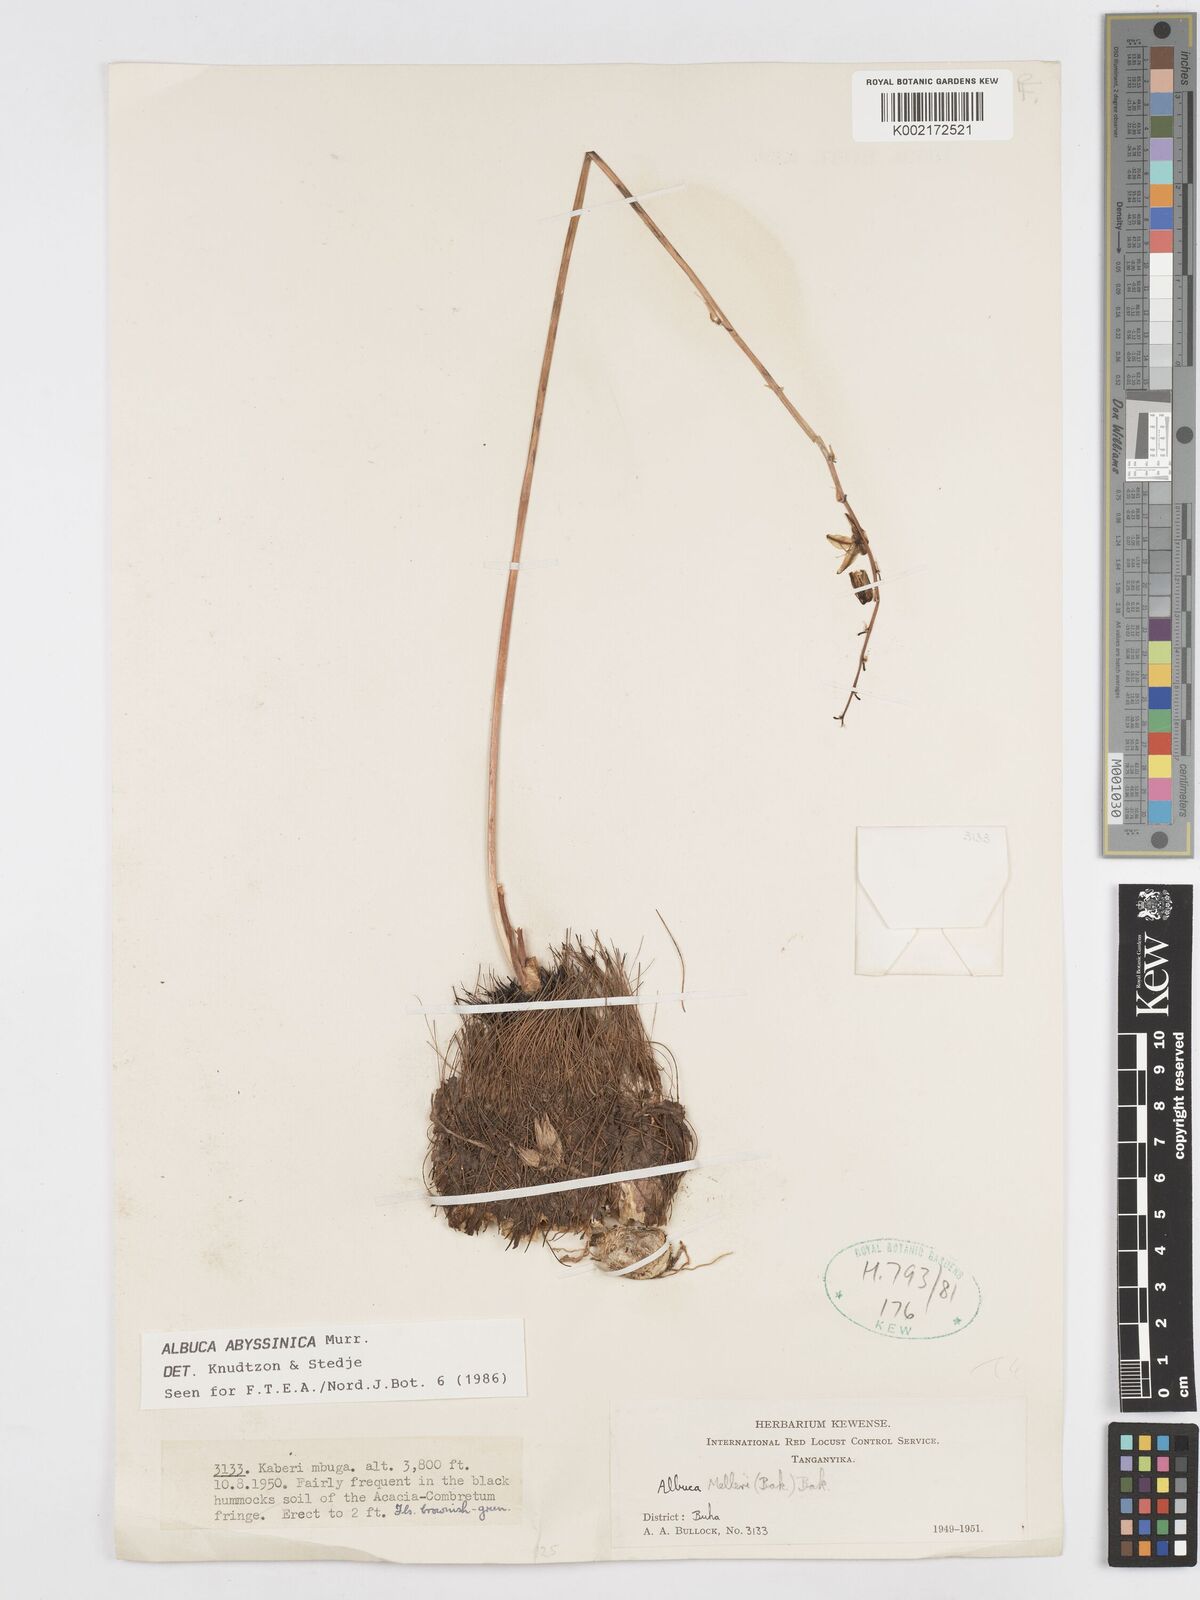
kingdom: Plantae
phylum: Tracheophyta
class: Liliopsida
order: Asparagales
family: Asparagaceae
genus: Albuca
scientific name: Albuca abyssinica
